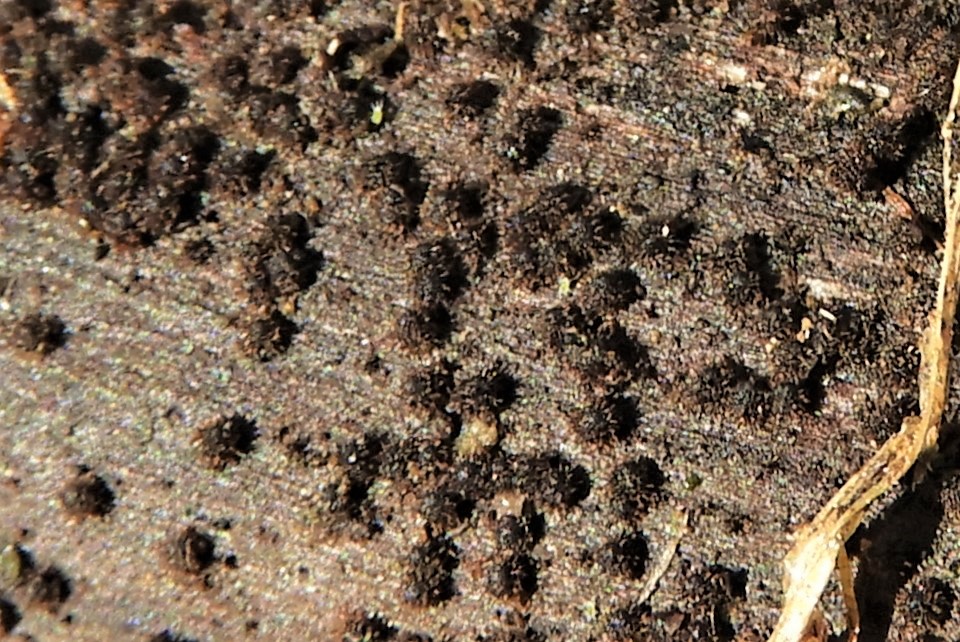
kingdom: Fungi
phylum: Ascomycota
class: Sordariomycetes
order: Sordariales
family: Helminthosphaeriaceae
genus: Echinosphaeria
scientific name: Echinosphaeria
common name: børstekerne
